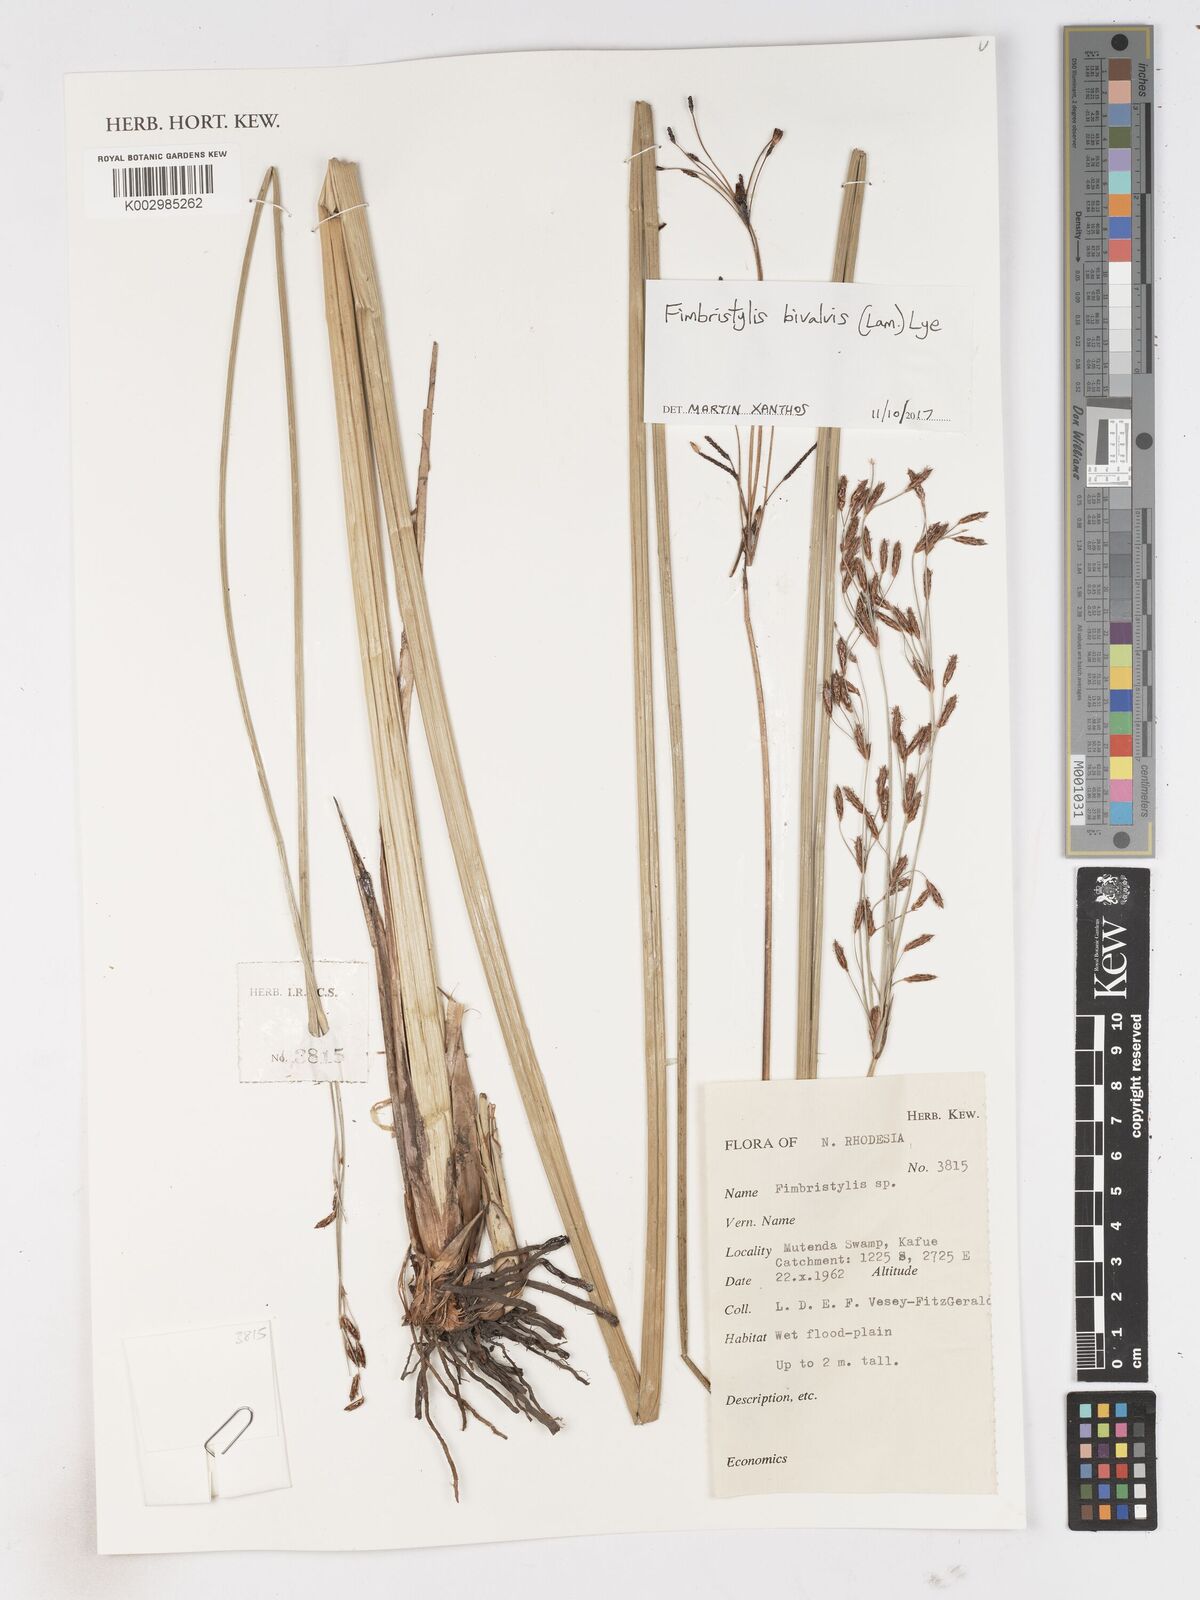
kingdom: Plantae
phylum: Tracheophyta
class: Liliopsida
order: Poales
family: Cyperaceae
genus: Fimbristylis
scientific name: Fimbristylis bivalvis
